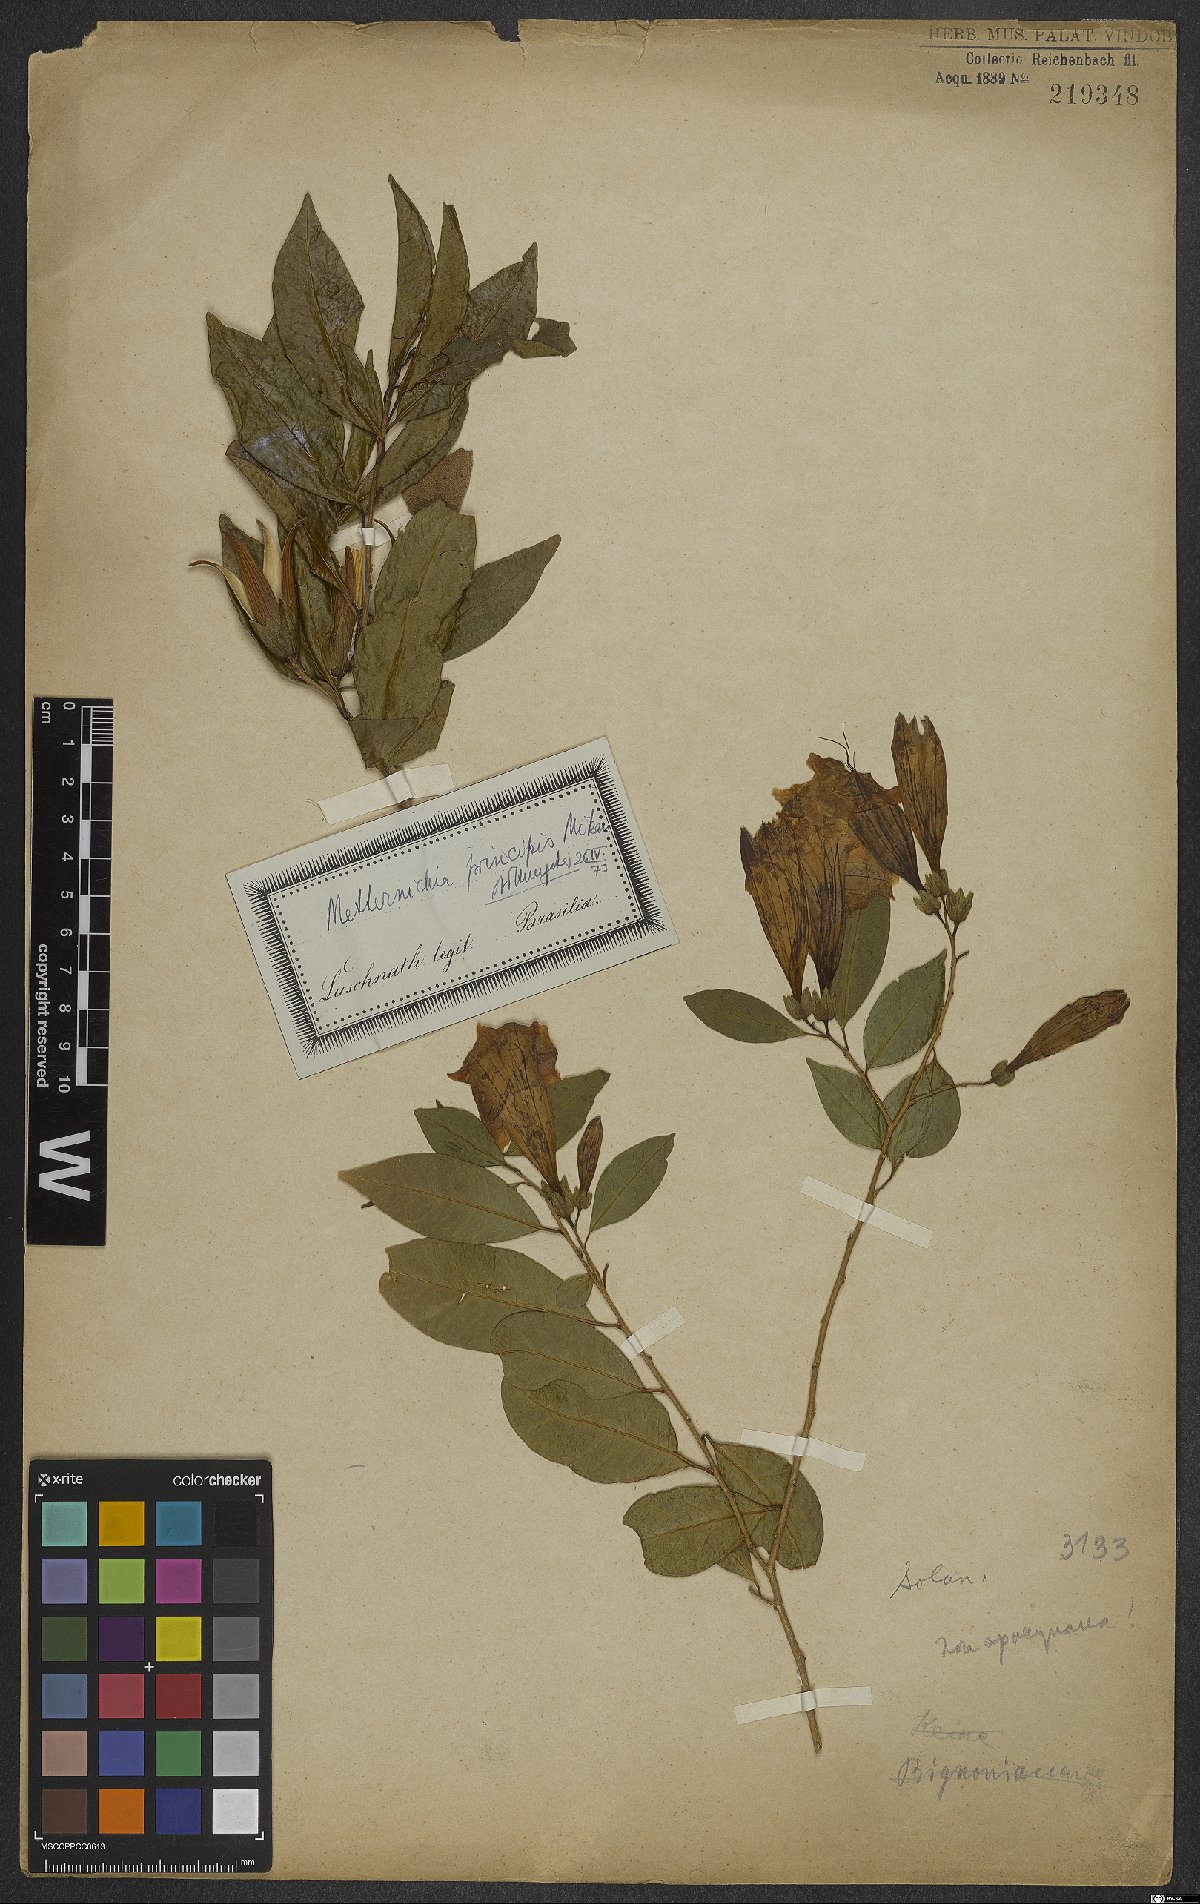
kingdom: Plantae
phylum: Tracheophyta
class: Magnoliopsida
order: Solanales
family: Solanaceae
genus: Metternichia
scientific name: Metternichia principis
